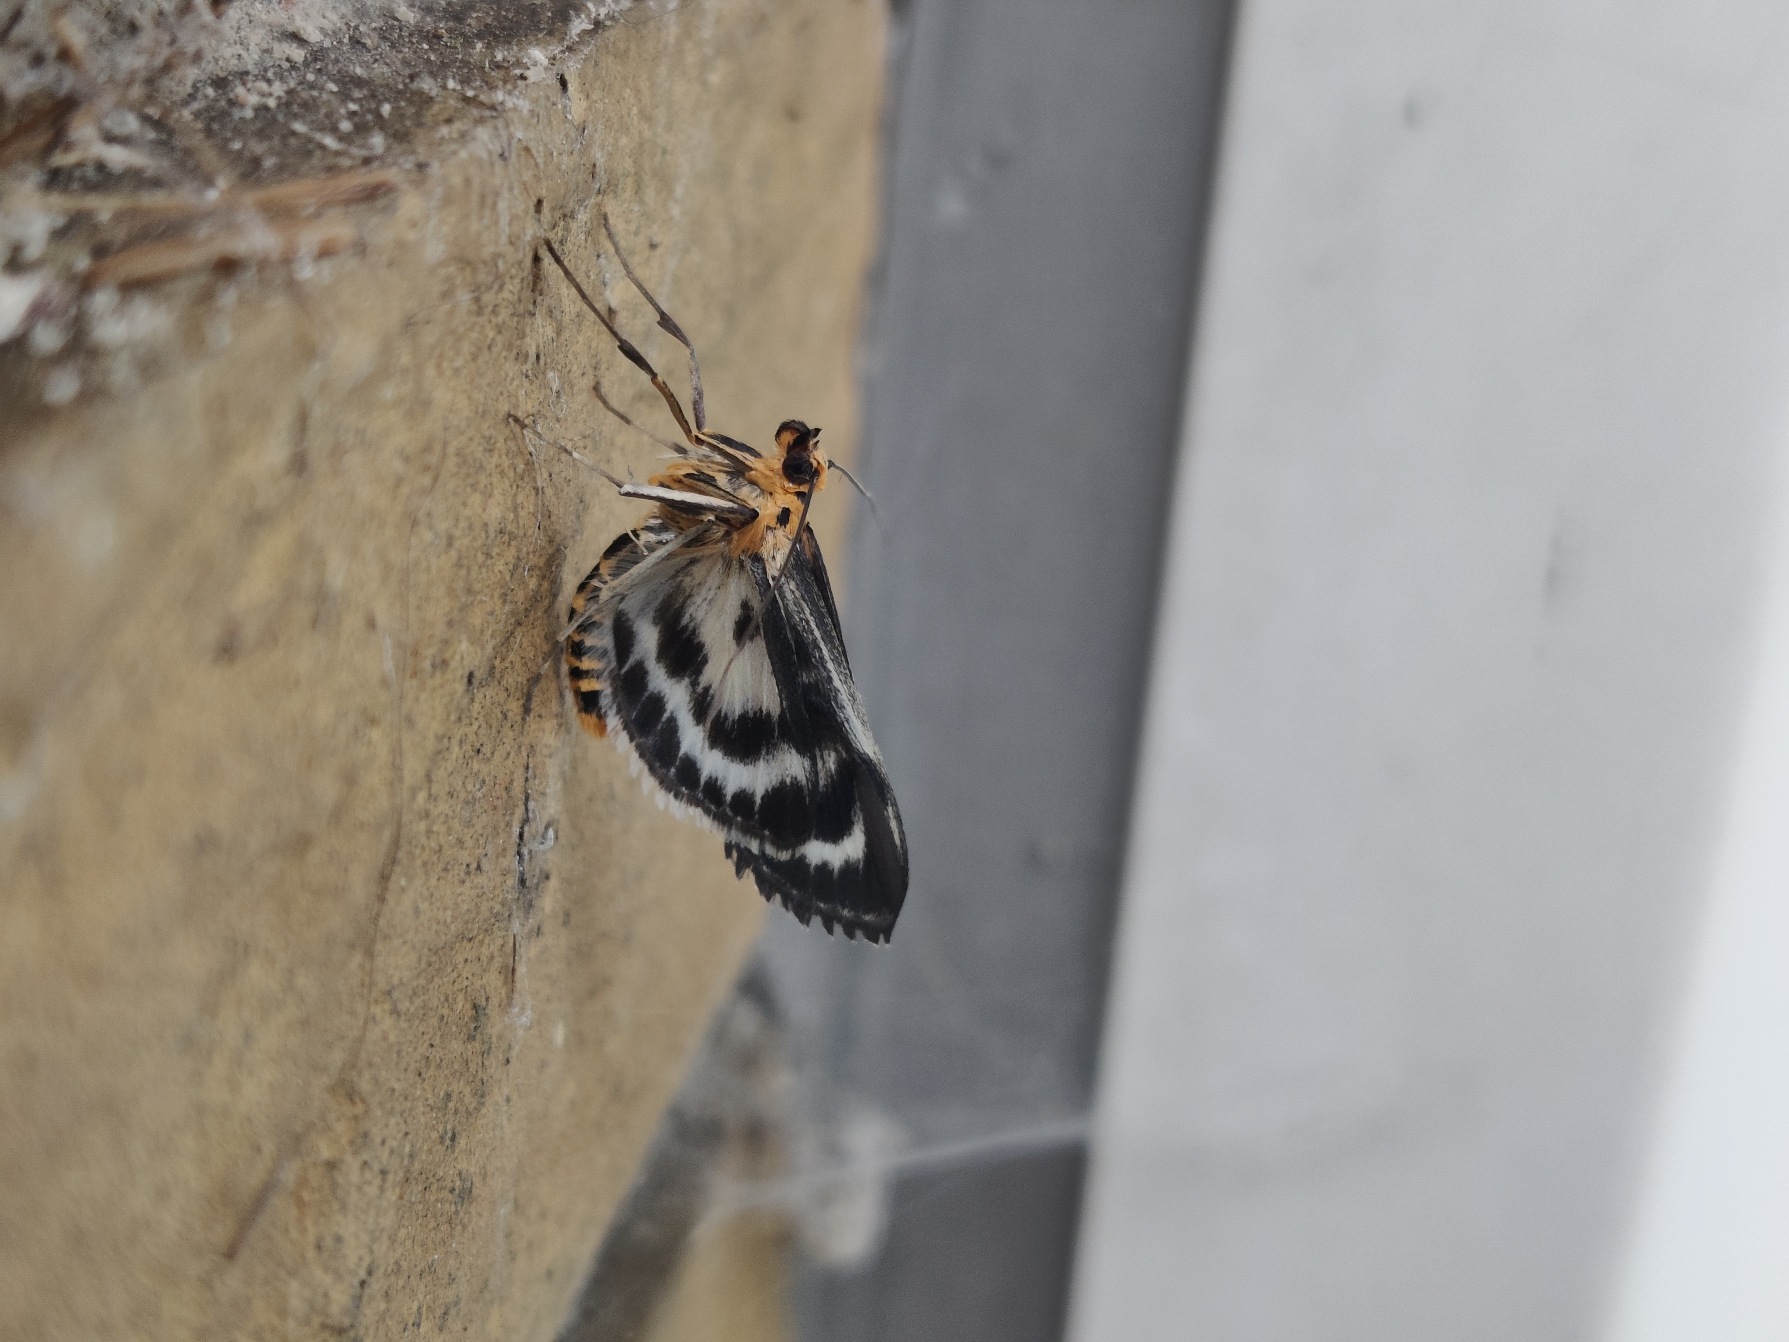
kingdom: Animalia
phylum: Arthropoda
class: Insecta
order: Lepidoptera
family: Crambidae
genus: Anania
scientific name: Anania hortulata
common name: Nældehalvmøl
